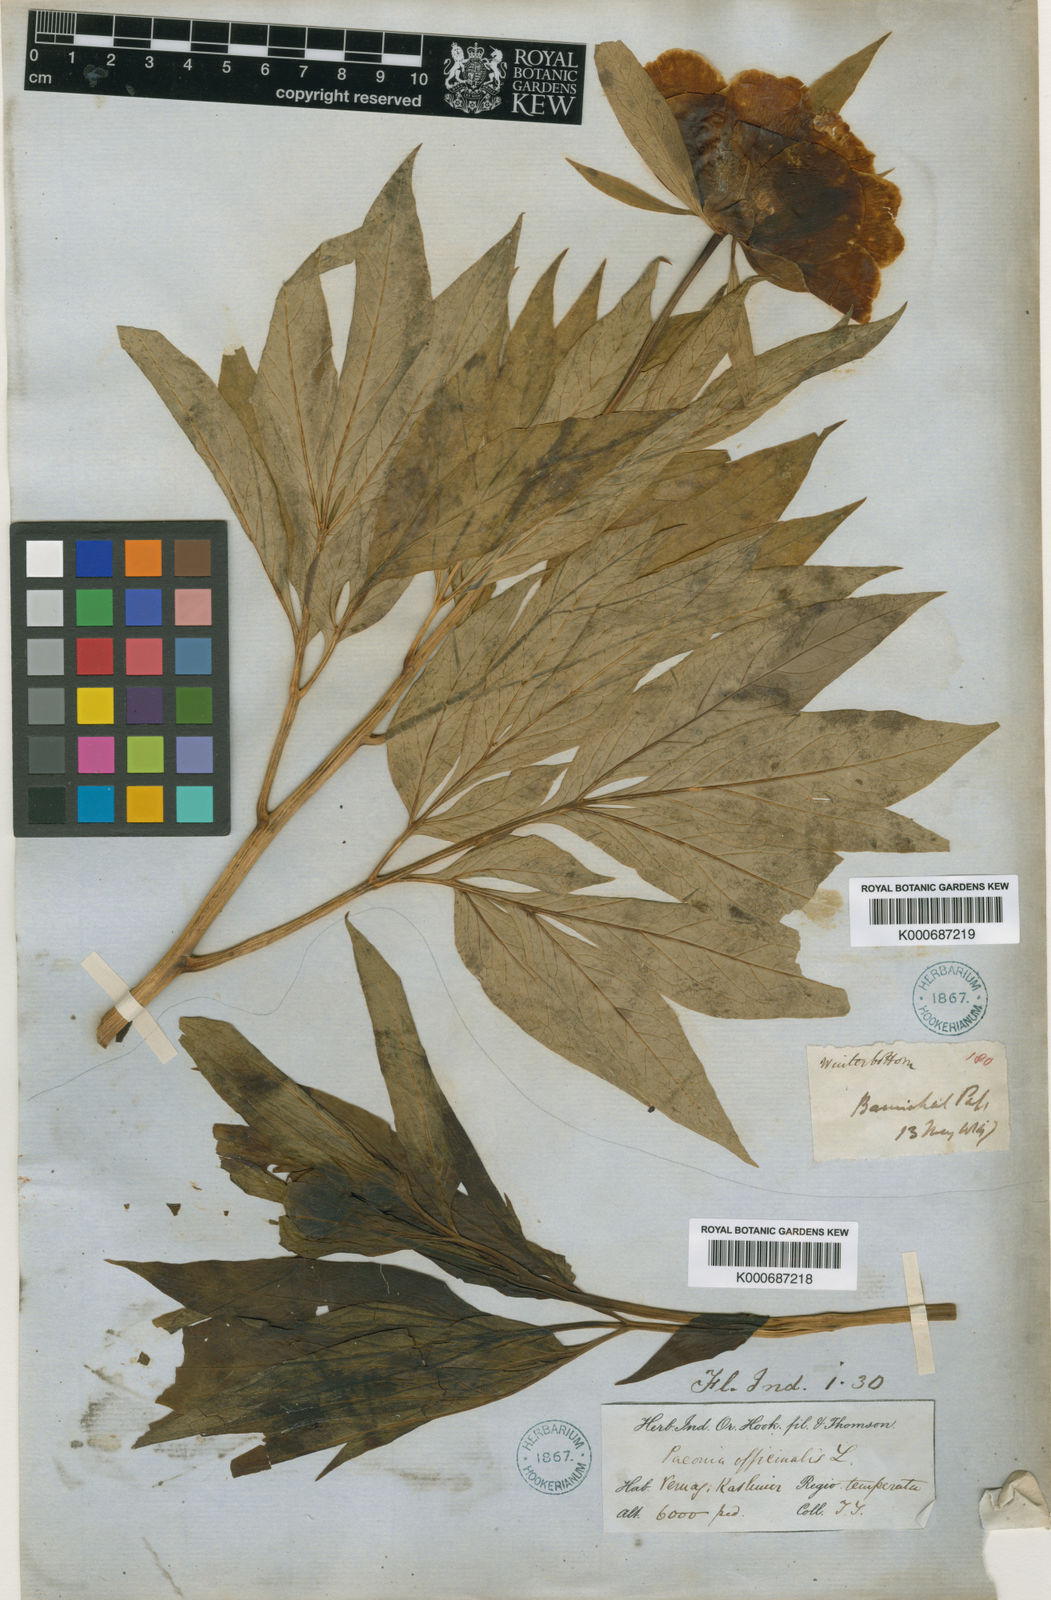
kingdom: Plantae
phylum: Tracheophyta
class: Magnoliopsida
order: Saxifragales
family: Paeoniaceae
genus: Paeonia
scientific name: Paeonia emodi
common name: Himalayan peony
